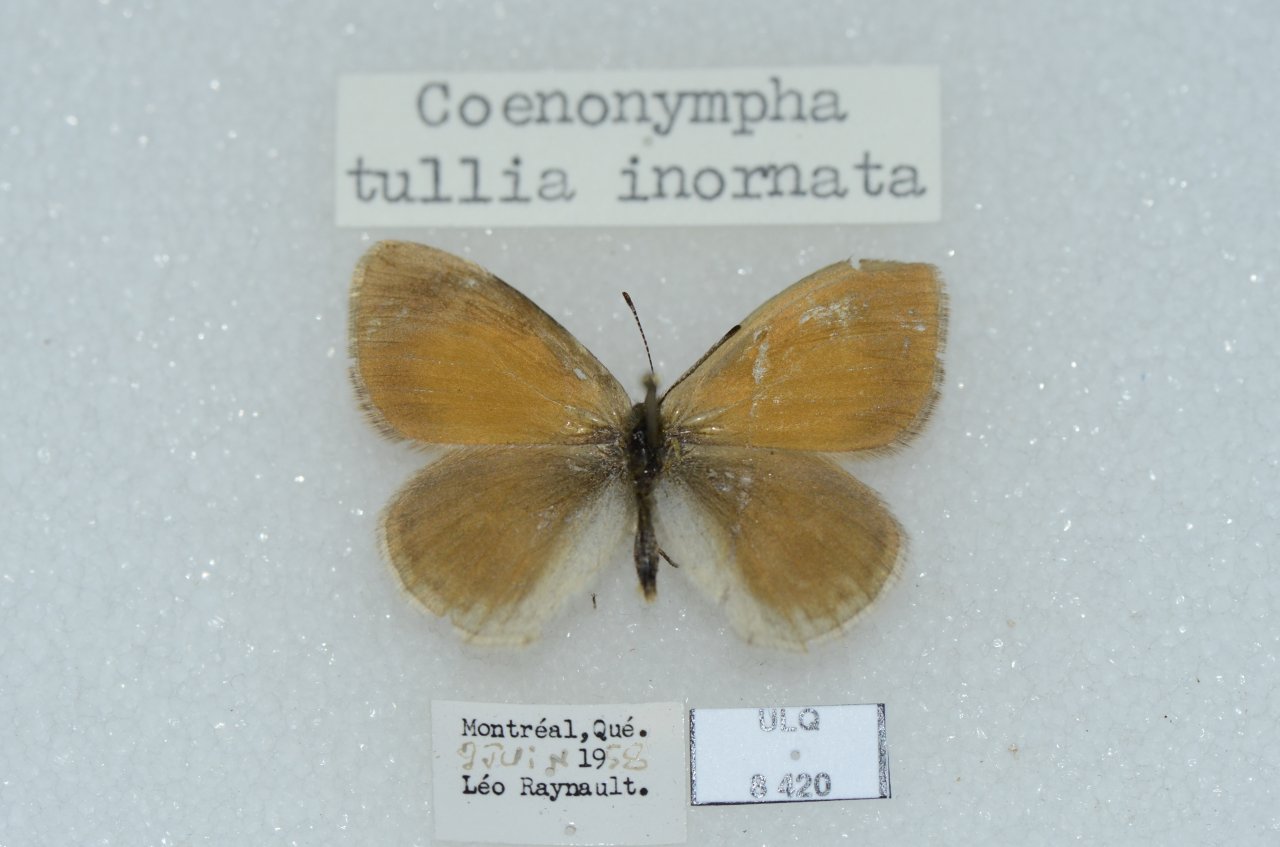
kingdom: Animalia
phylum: Arthropoda
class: Insecta
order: Lepidoptera
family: Nymphalidae
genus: Coenonympha
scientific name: Coenonympha tullia
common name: Large Heath
